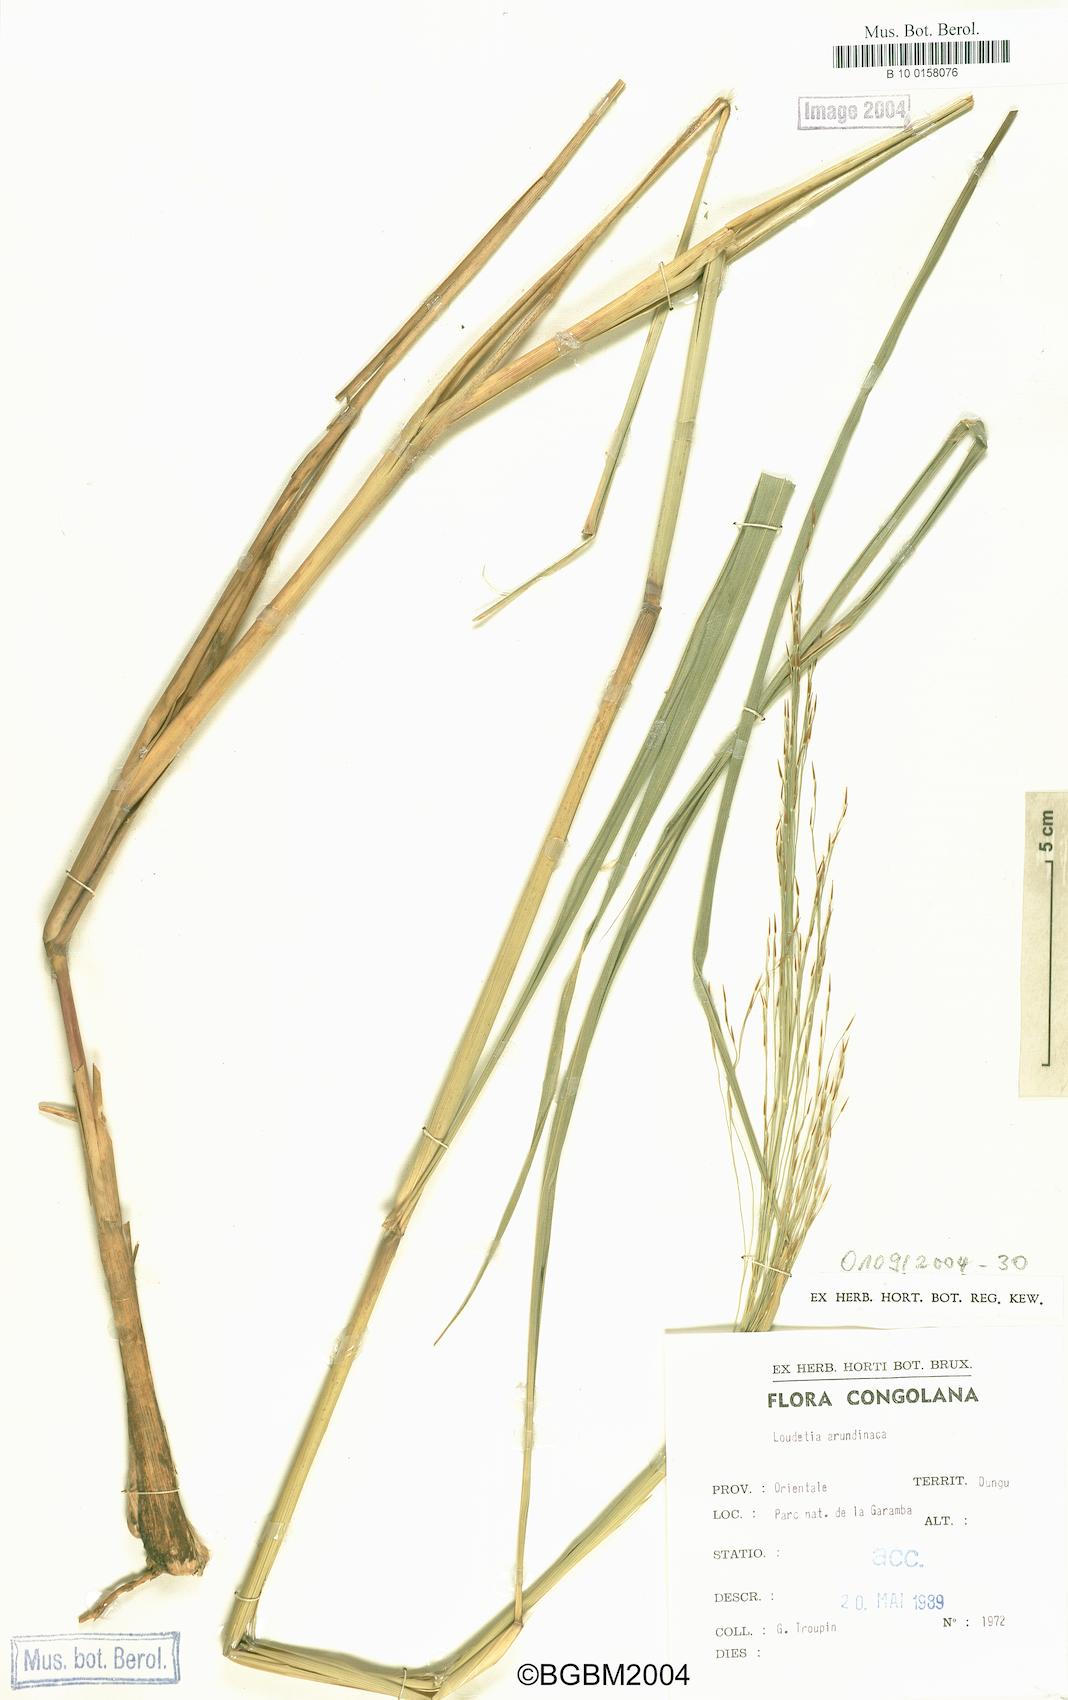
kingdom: Plantae
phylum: Tracheophyta
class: Liliopsida
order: Poales
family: Poaceae
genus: Loudetia
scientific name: Loudetia arundinacea
